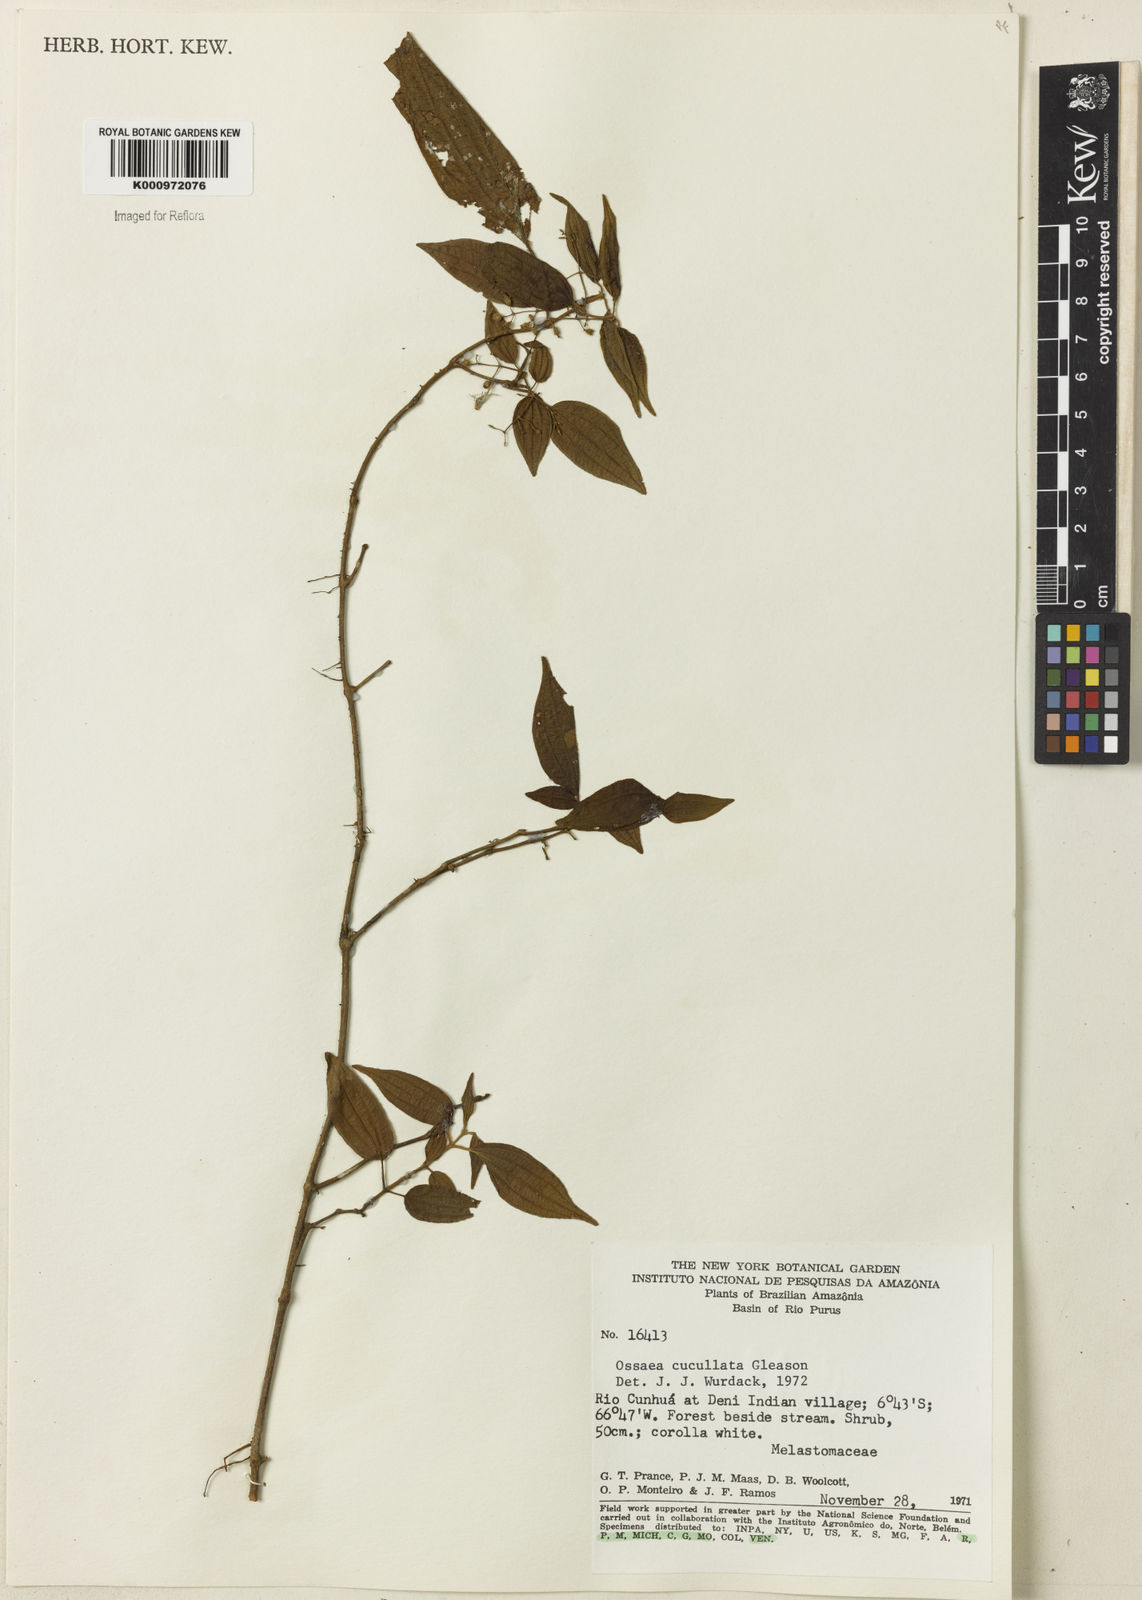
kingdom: Plantae
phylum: Tracheophyta
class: Magnoliopsida
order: Myrtales
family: Melastomataceae
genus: Miconia
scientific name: Miconia cucullata
